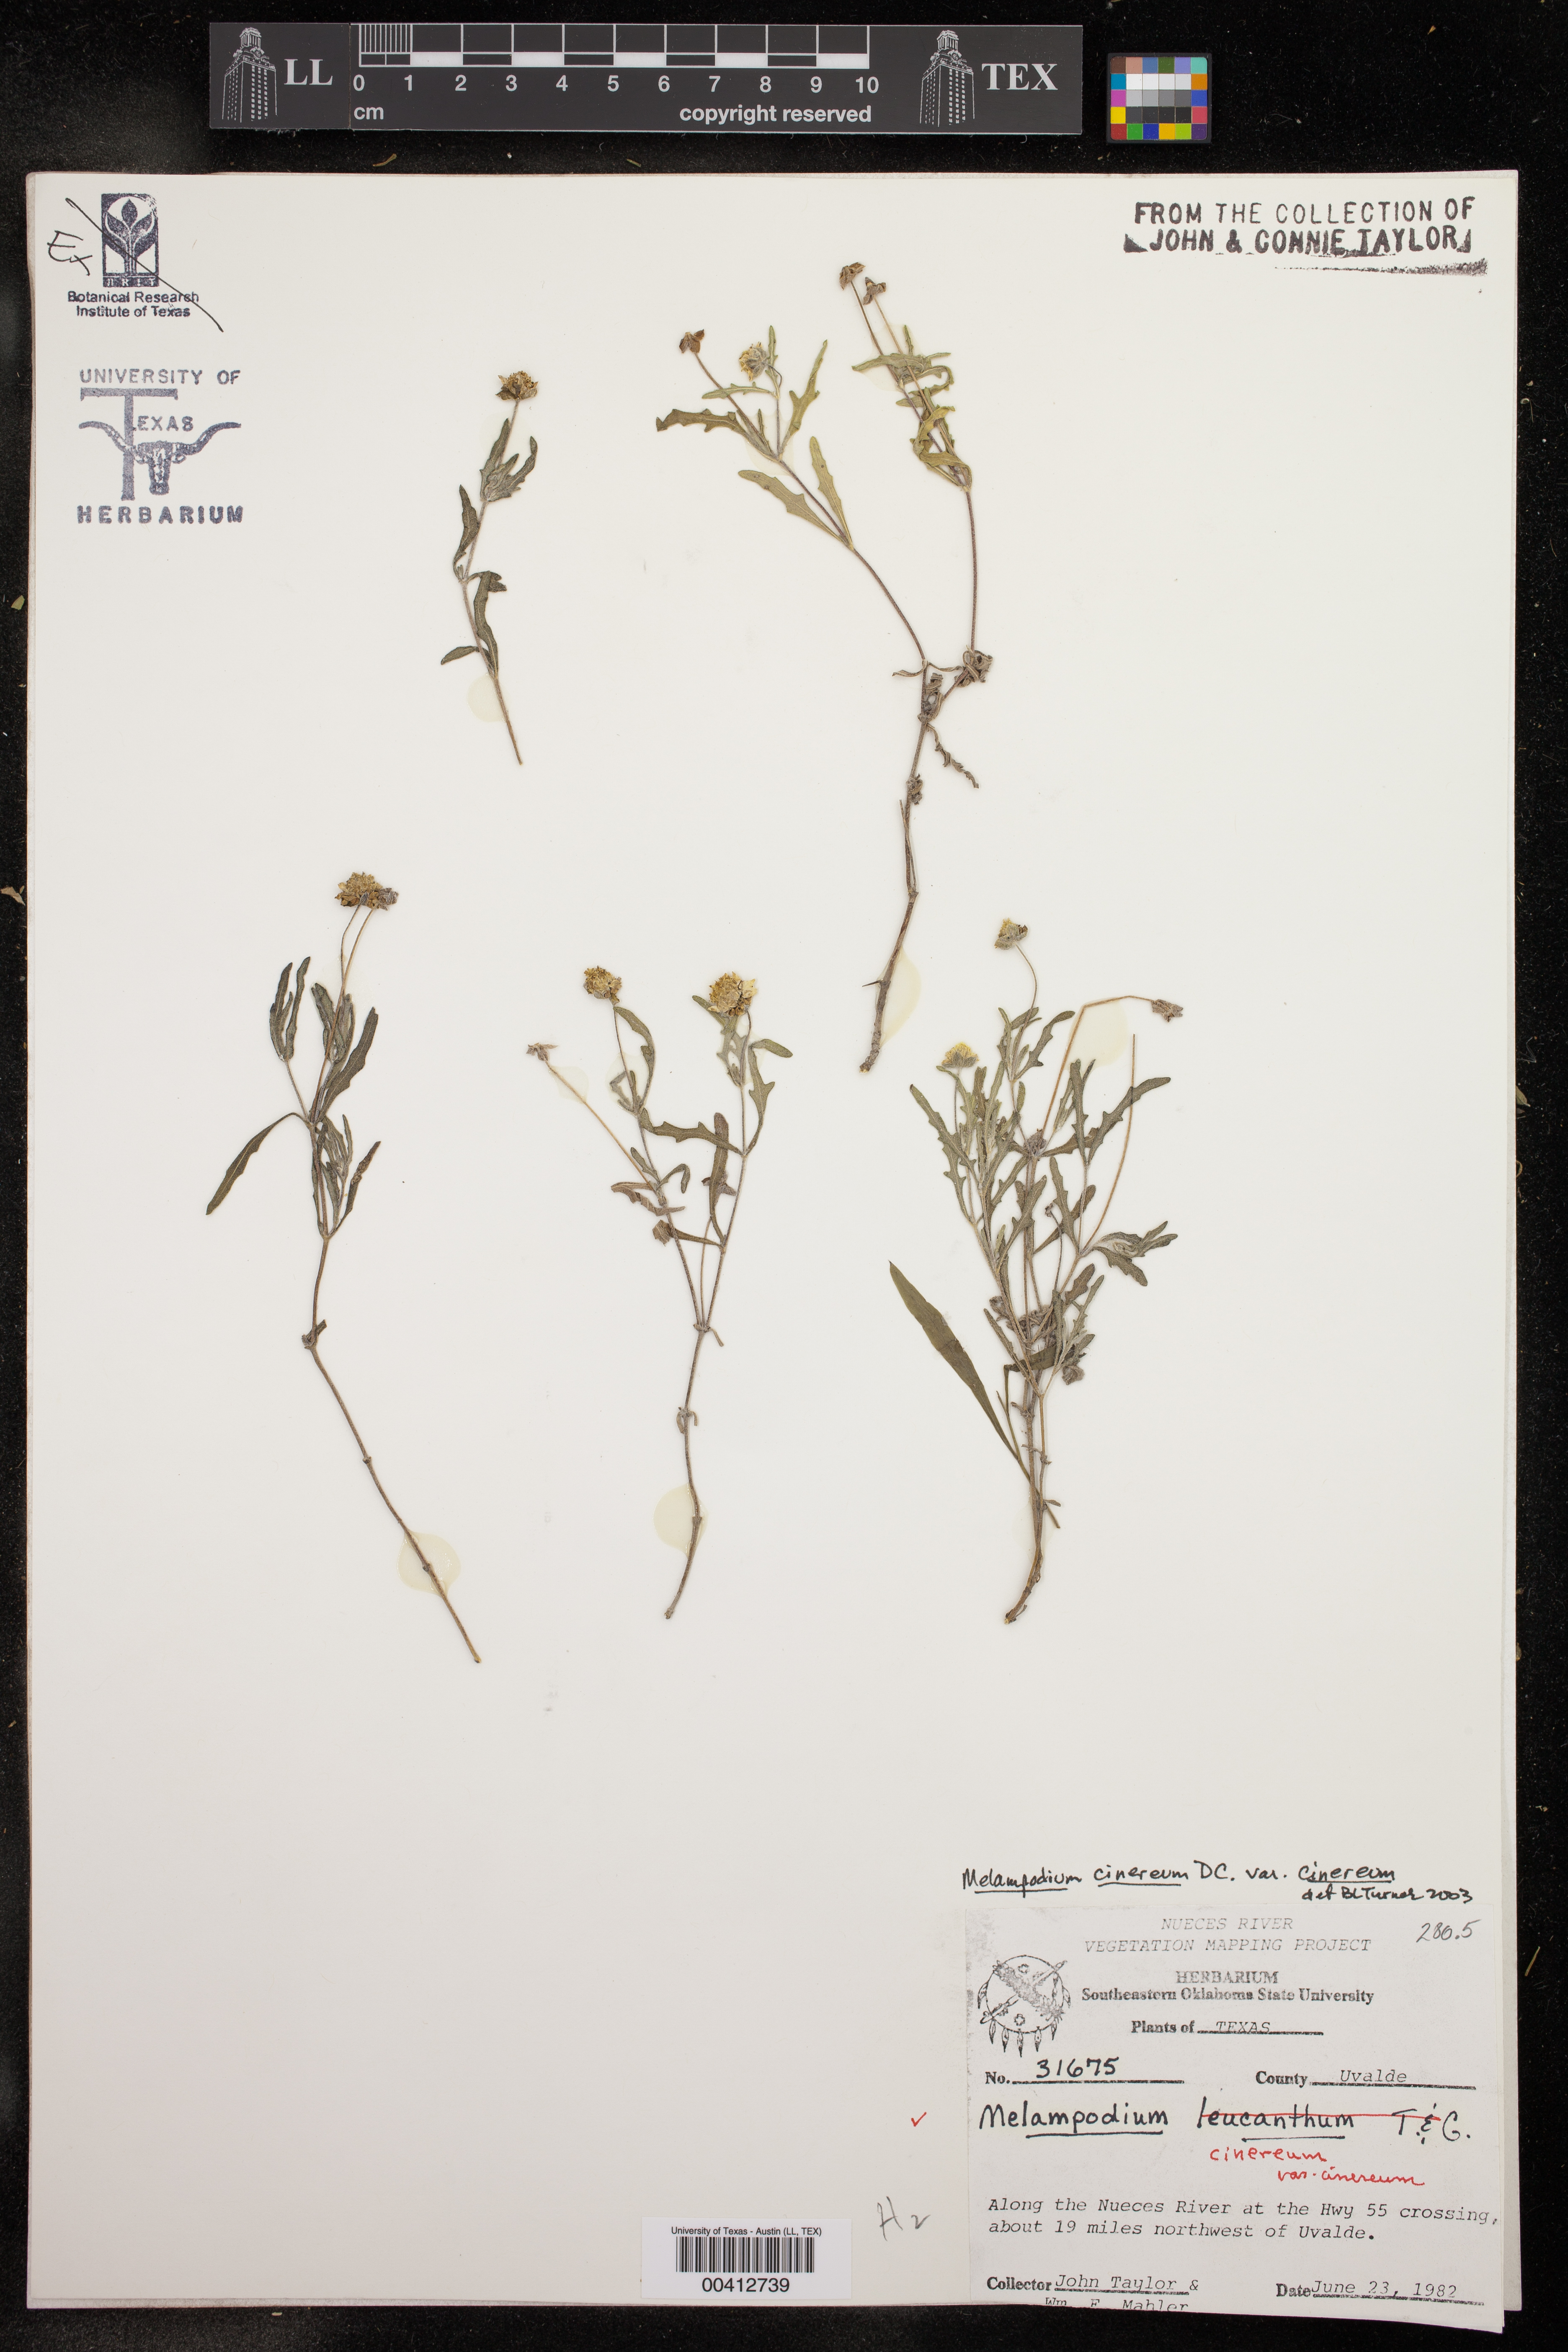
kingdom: Plantae
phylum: Tracheophyta
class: Magnoliopsida
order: Asterales
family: Asteraceae
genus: Melampodium
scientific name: Melampodium cinereum
